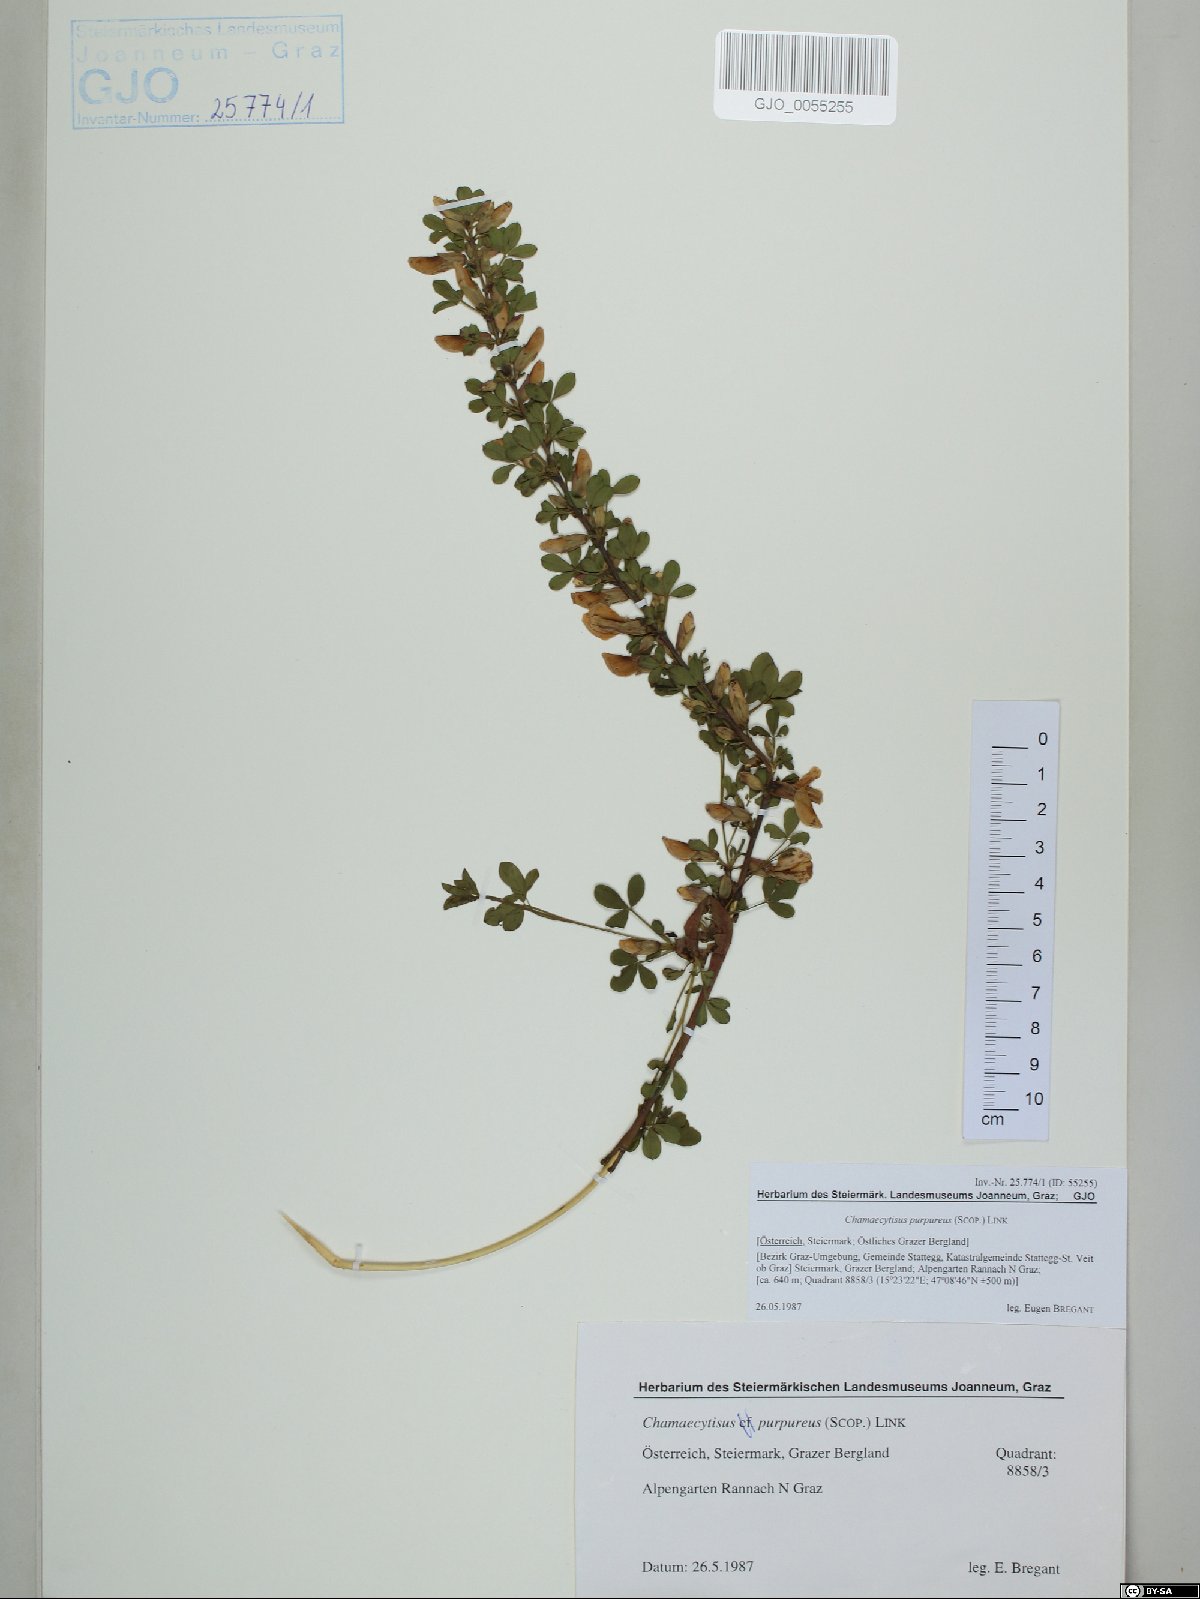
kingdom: Plantae
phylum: Tracheophyta
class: Magnoliopsida
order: Fabales
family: Fabaceae
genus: Chamaecytisus
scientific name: Chamaecytisus purpureus
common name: Purple broom
